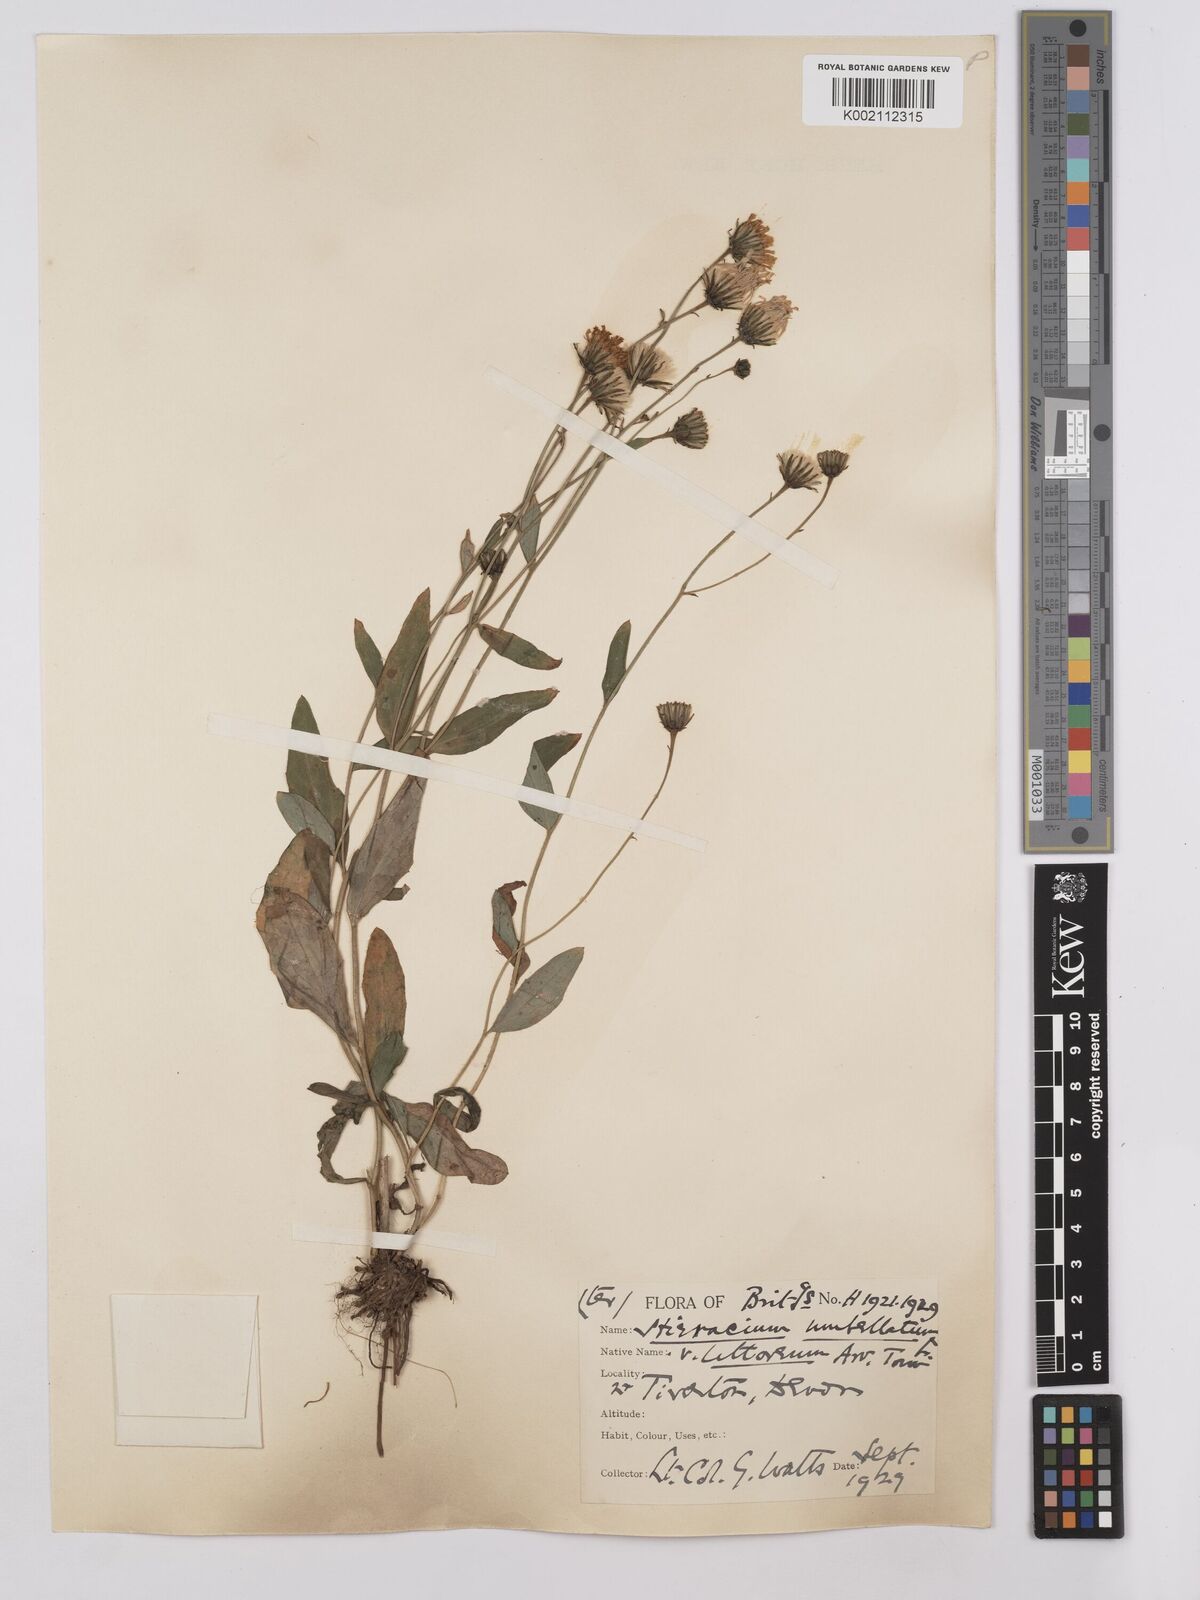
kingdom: Plantae
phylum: Tracheophyta
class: Magnoliopsida
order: Asterales
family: Asteraceae
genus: Hieracium
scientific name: Hieracium umbellatum
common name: Northern hawkweed
